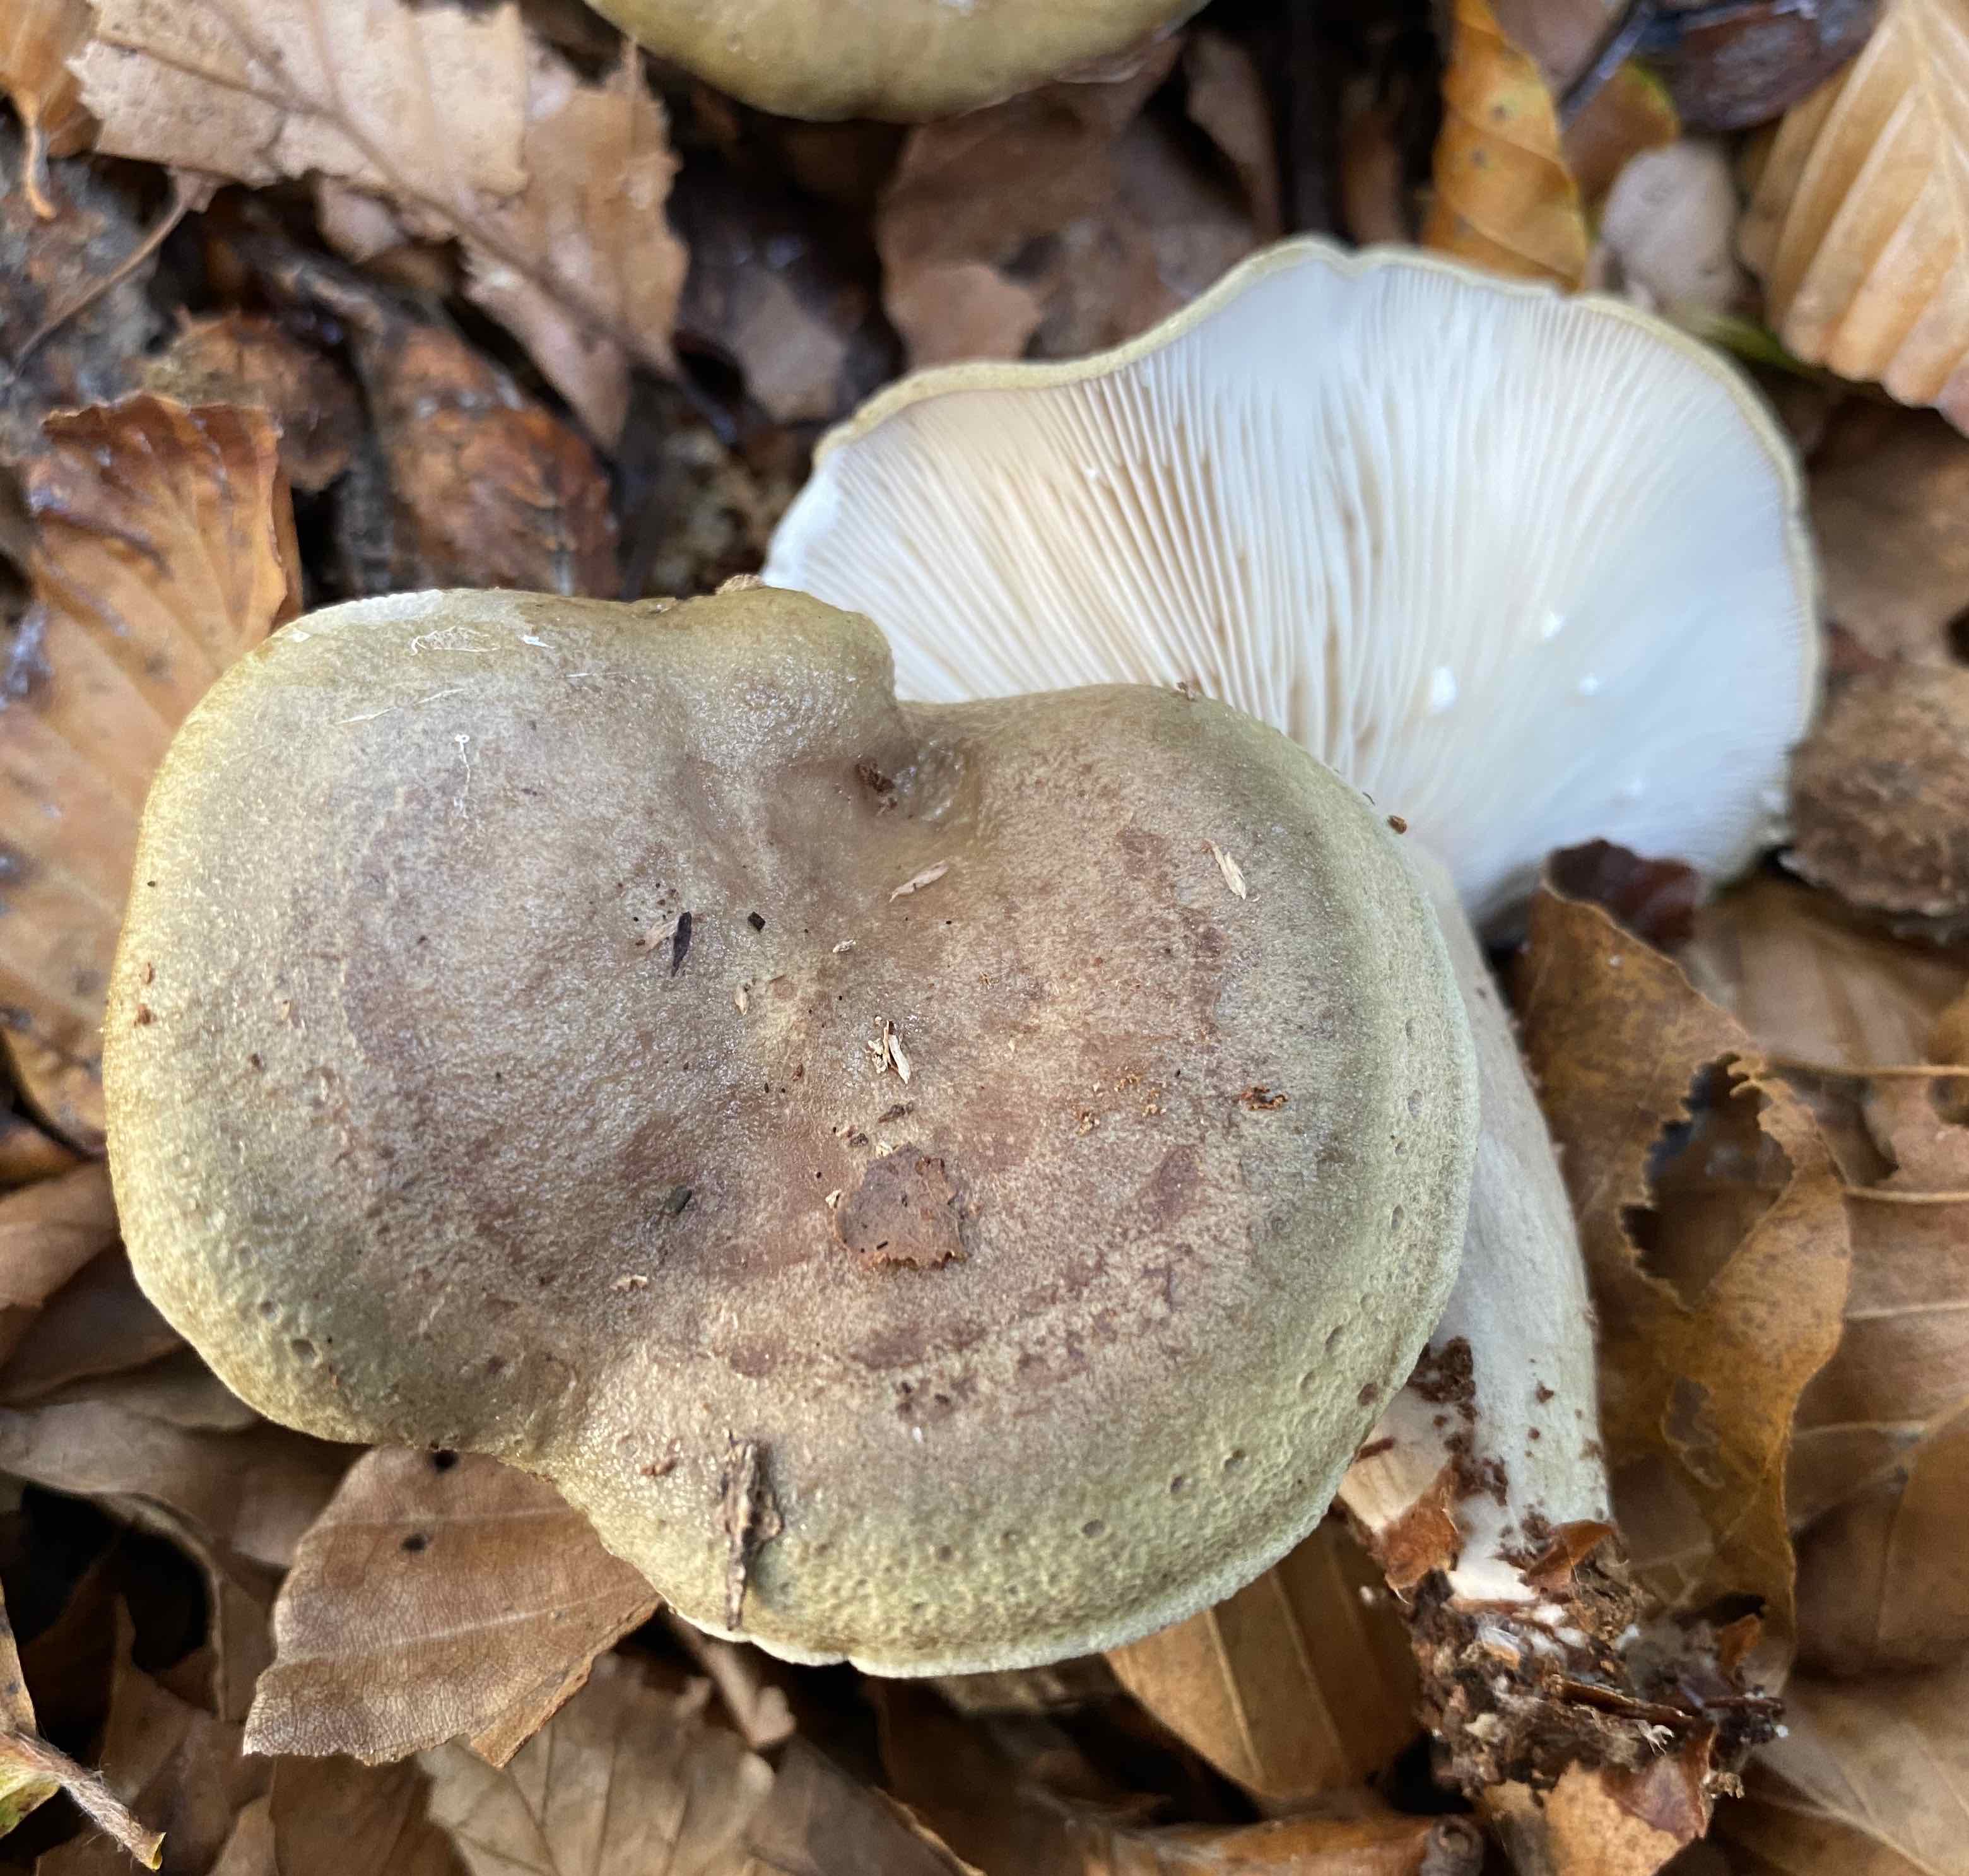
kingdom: Fungi
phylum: Basidiomycota
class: Agaricomycetes
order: Russulales
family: Russulaceae
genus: Lactarius
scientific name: Lactarius blennius
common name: dråbeplettet mælkehat
